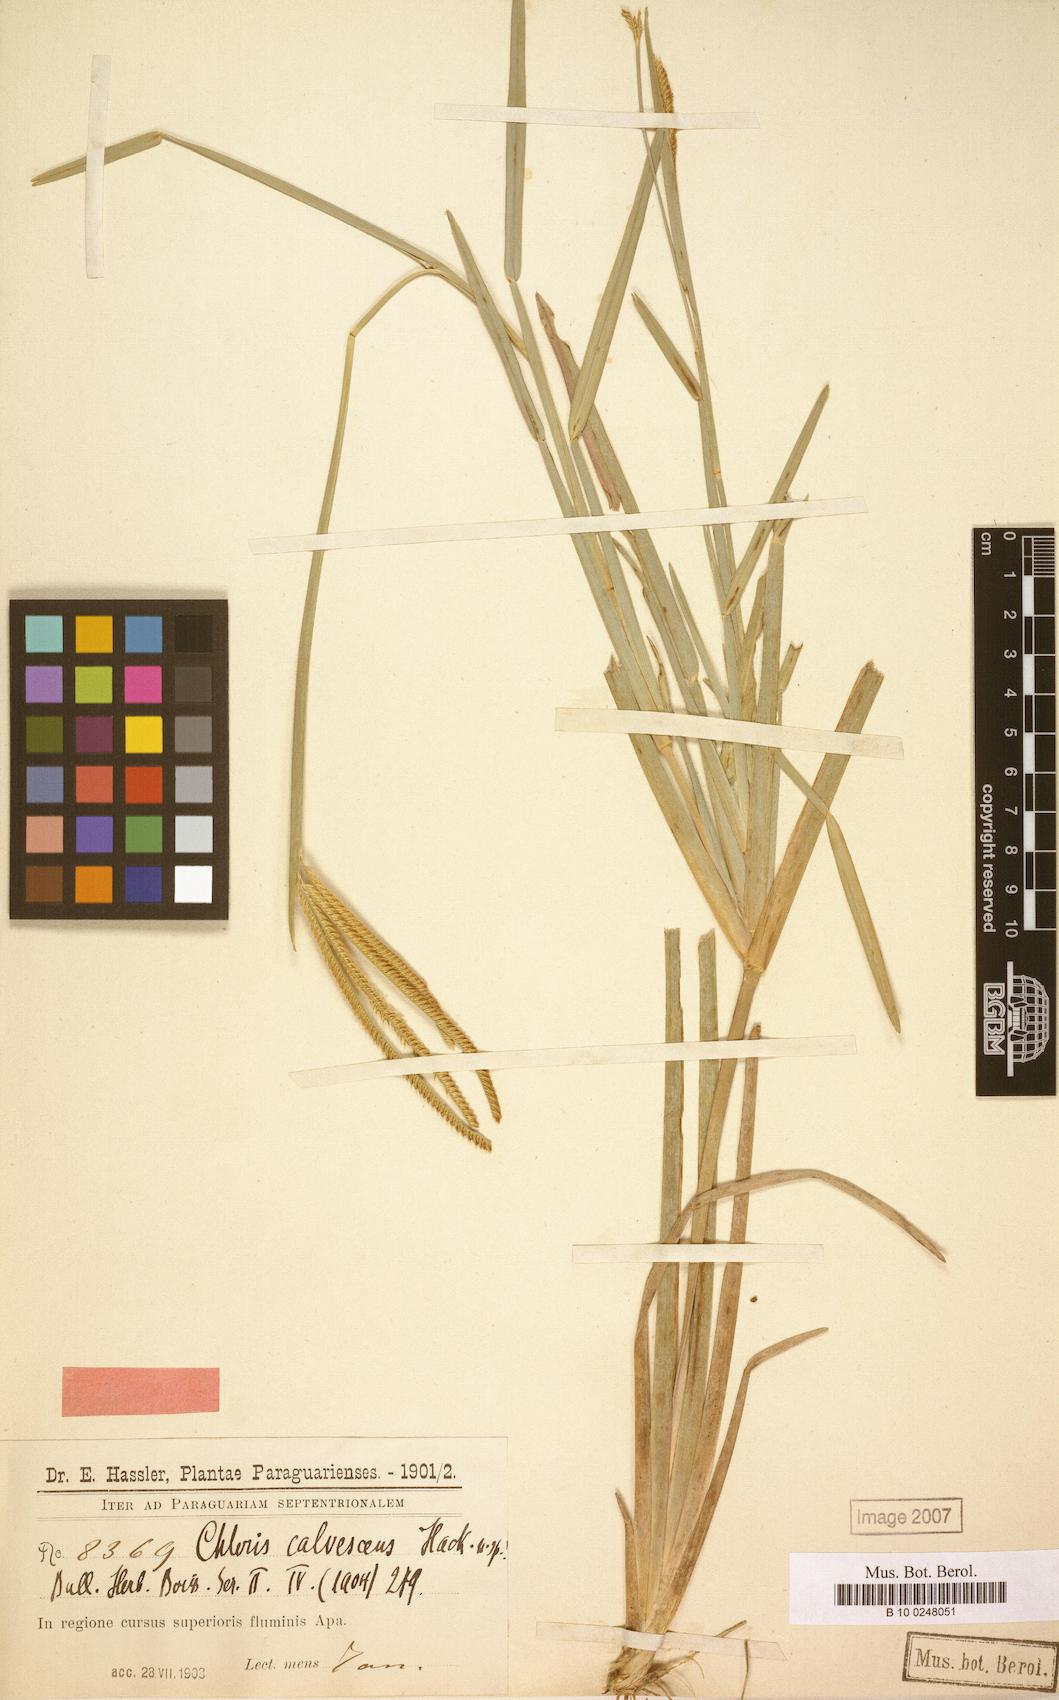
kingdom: Plantae
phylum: Tracheophyta
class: Liliopsida
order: Poales
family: Poaceae
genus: Eustachys
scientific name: Eustachys calvescens
